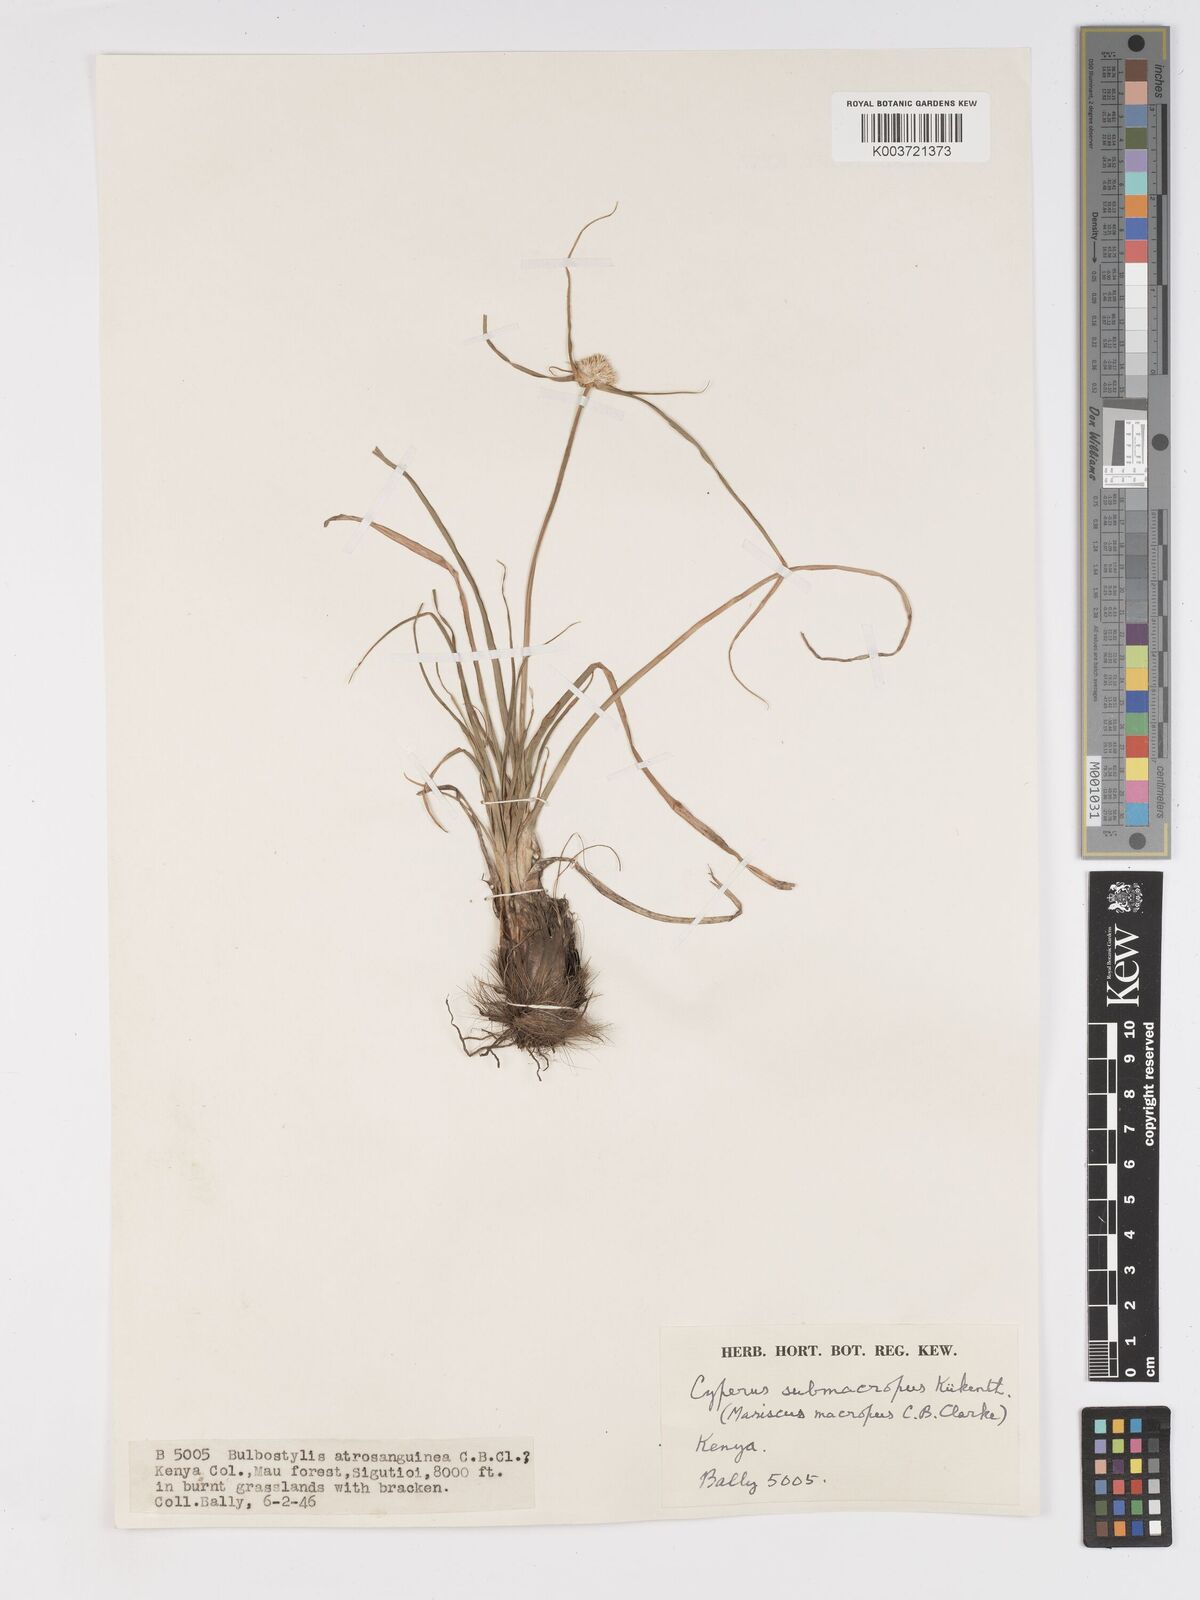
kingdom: Plantae
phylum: Tracheophyta
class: Liliopsida
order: Poales
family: Cyperaceae
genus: Cyperus
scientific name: Cyperus mollipes
